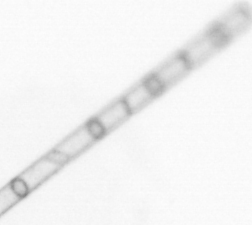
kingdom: Chromista
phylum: Ochrophyta
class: Bacillariophyceae
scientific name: Bacillariophyceae
